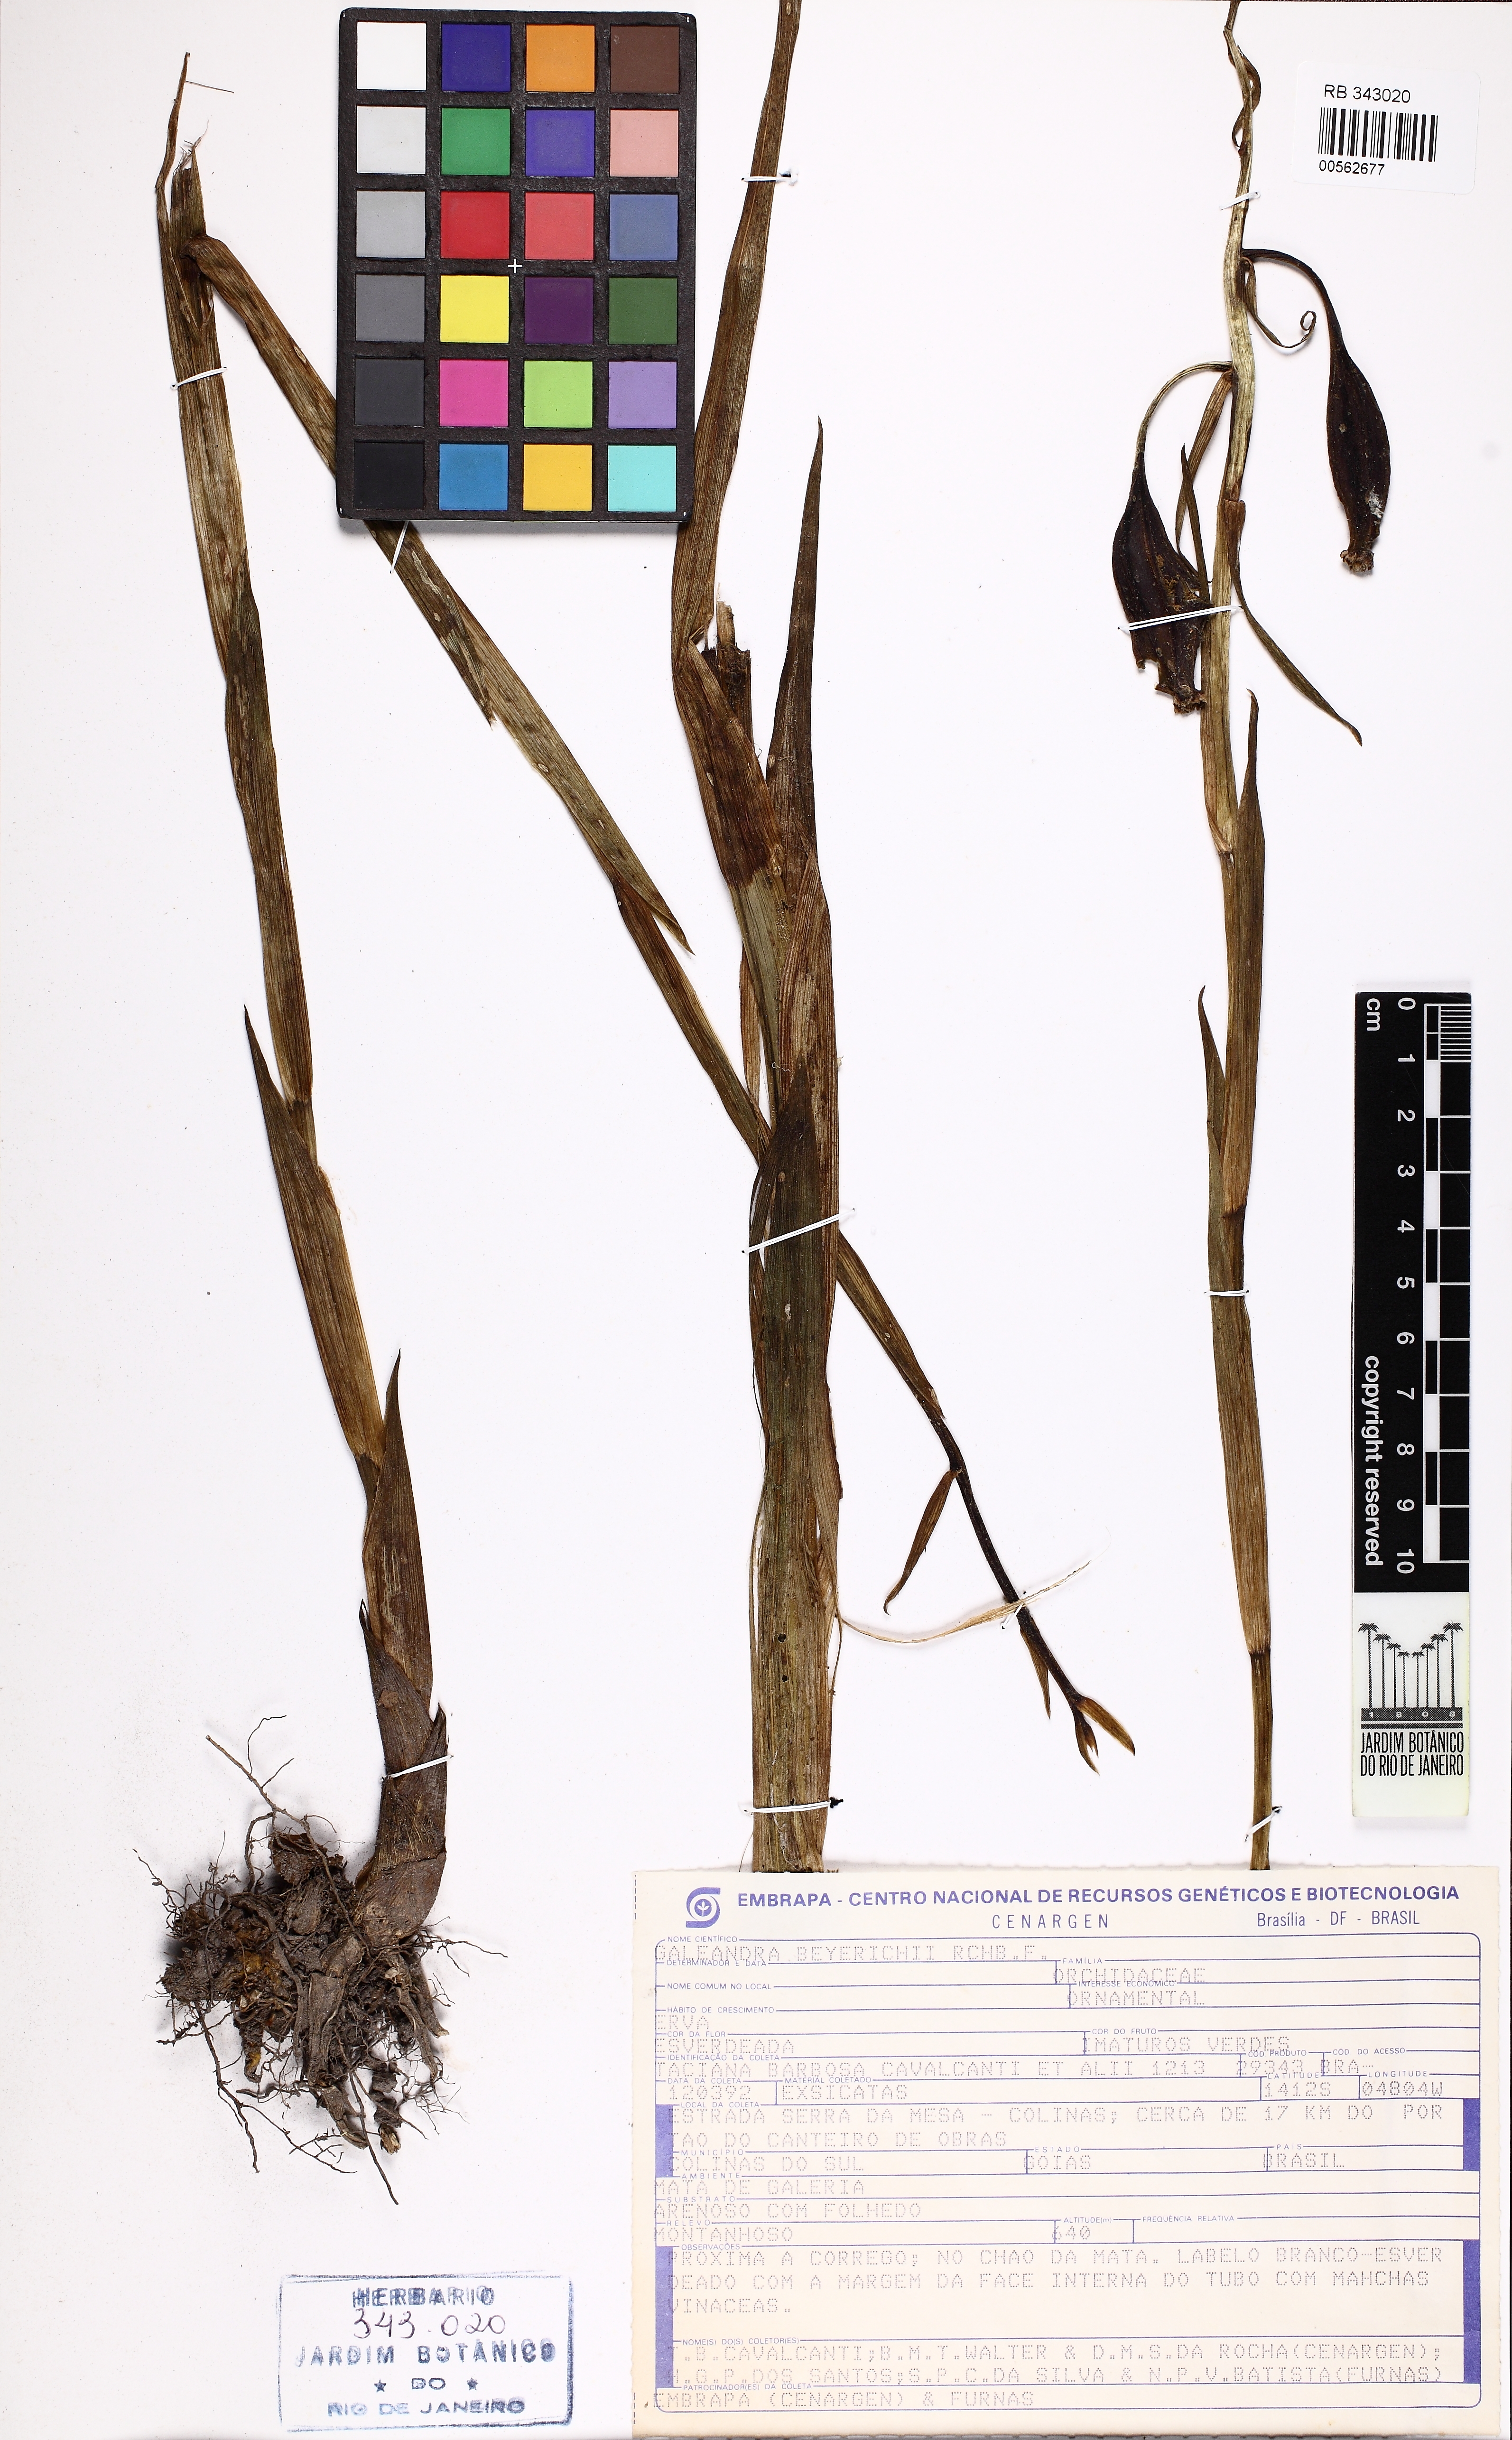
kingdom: Plantae
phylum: Tracheophyta
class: Liliopsida
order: Asparagales
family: Orchidaceae
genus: Galeandra
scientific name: Galeandra beyrichii
